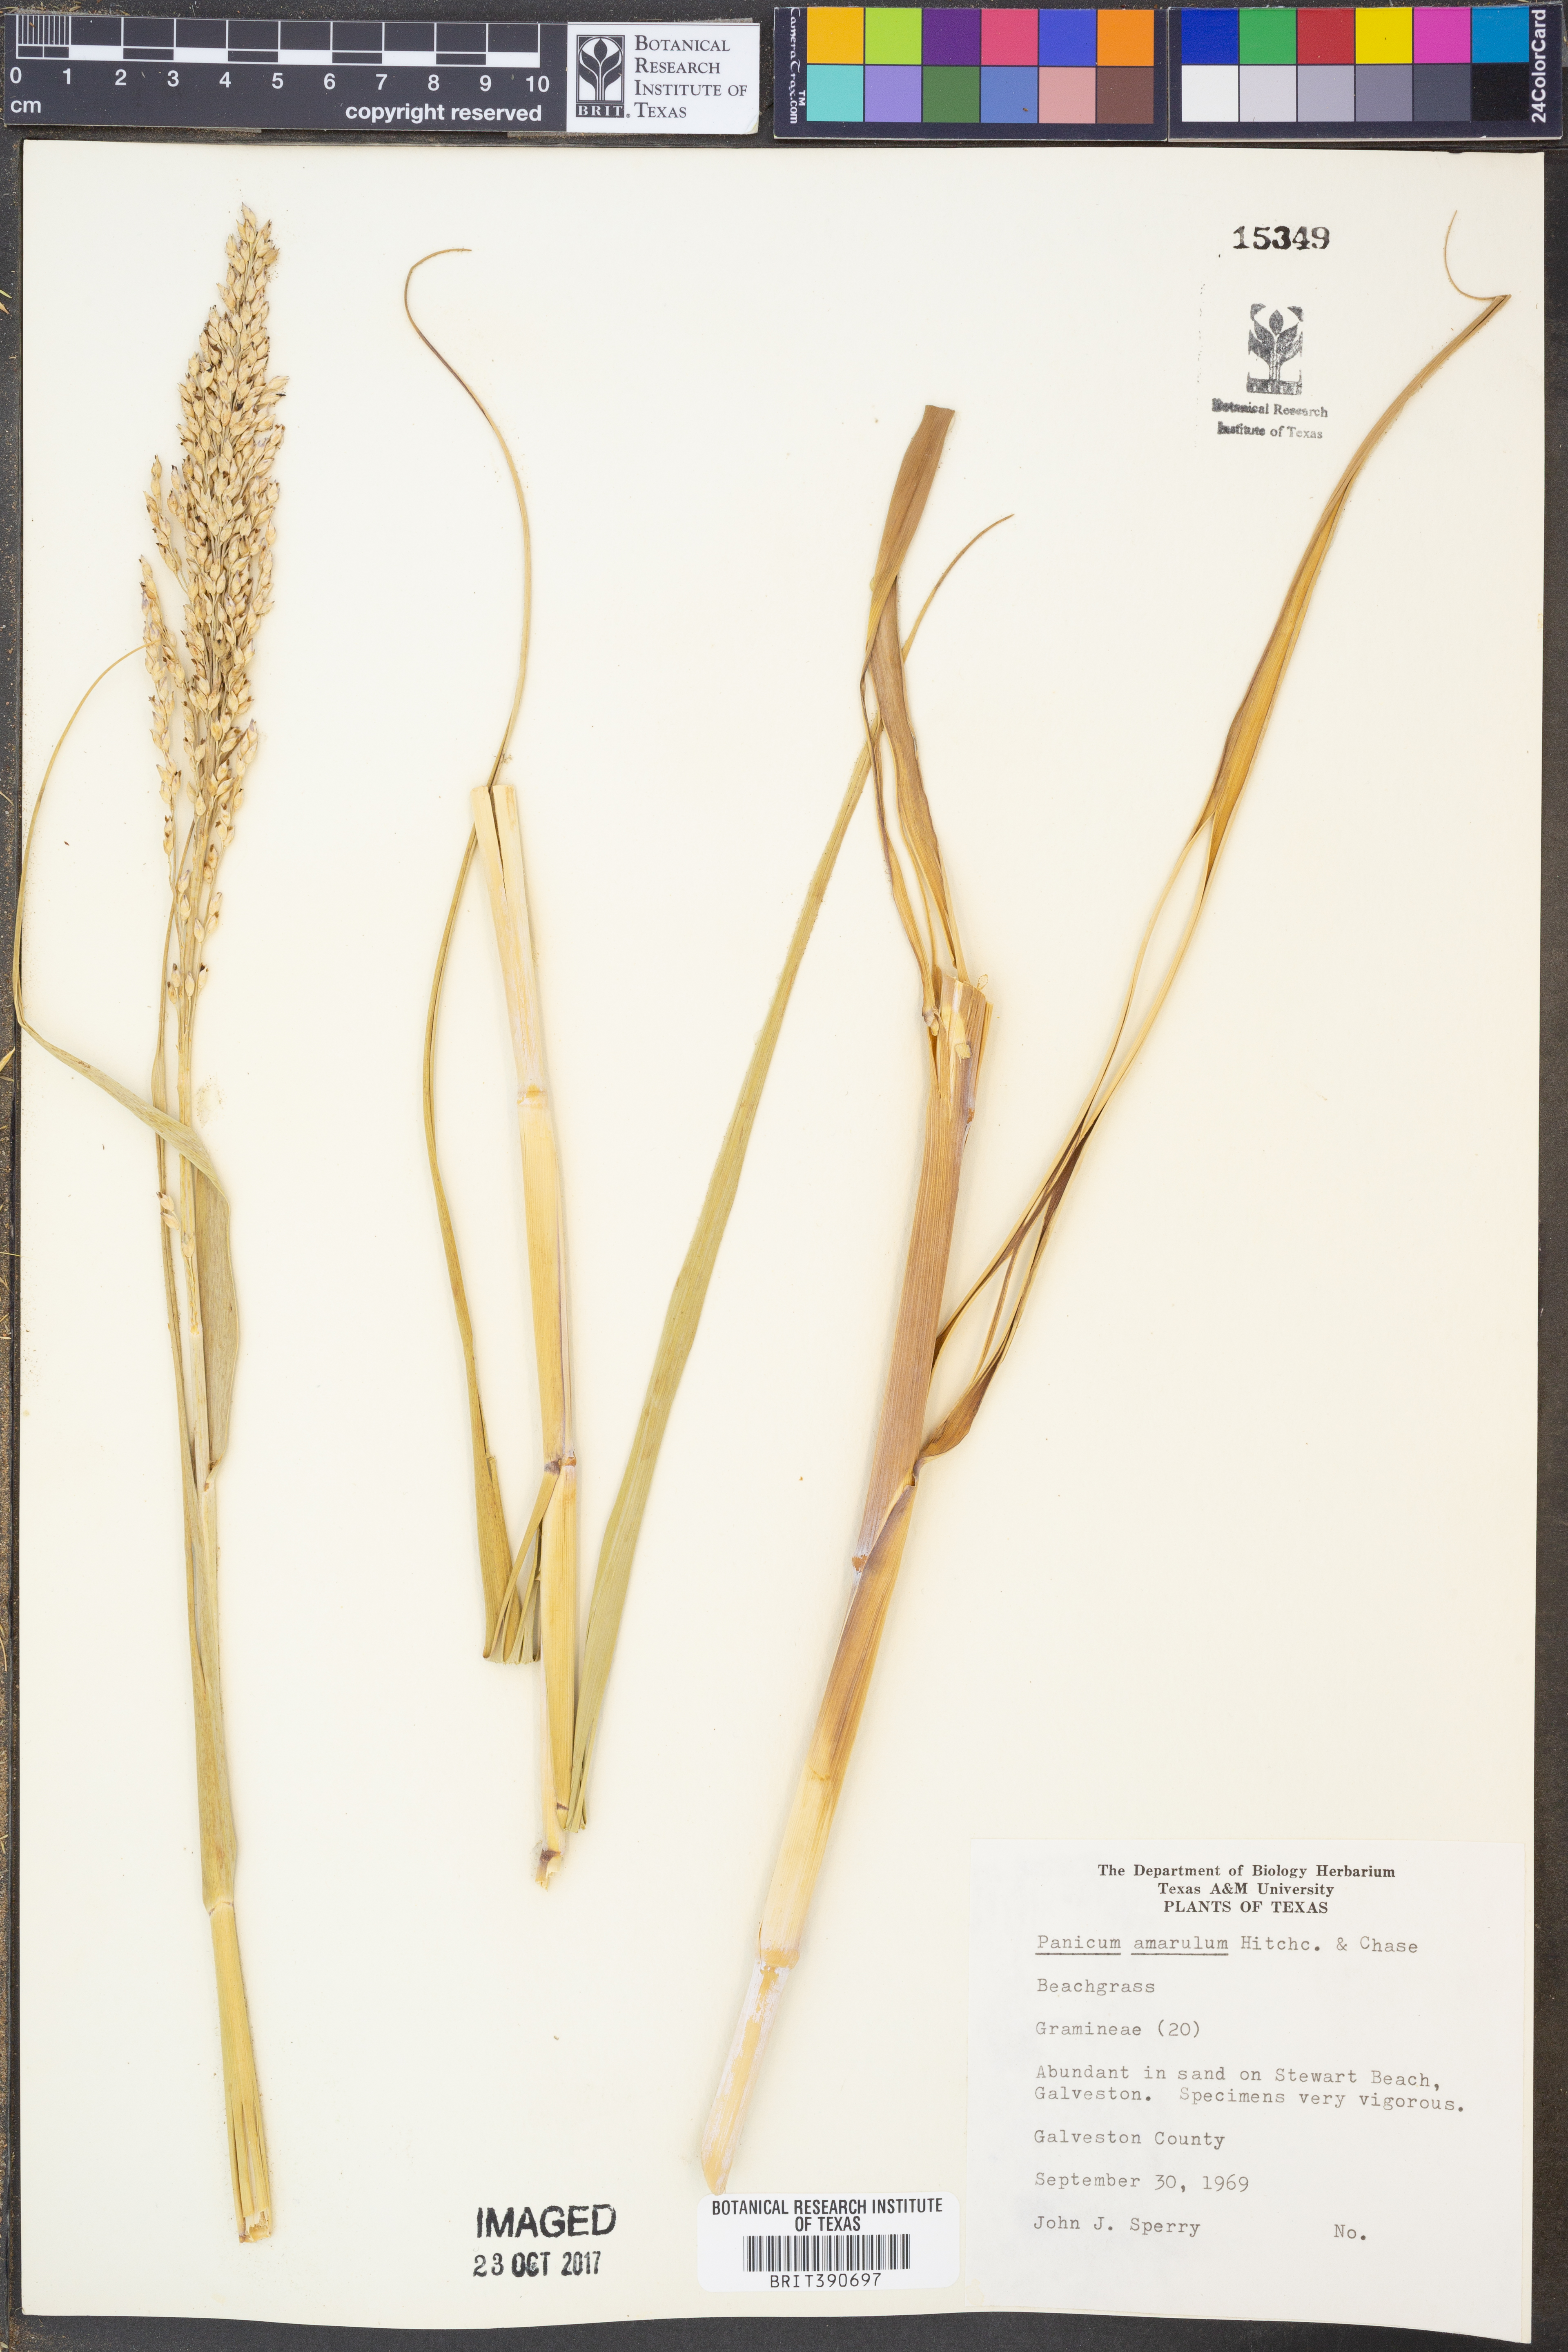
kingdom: Plantae
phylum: Tracheophyta
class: Liliopsida
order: Poales
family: Poaceae
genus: Panicum
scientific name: Panicum amarum
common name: Bitter panicum
